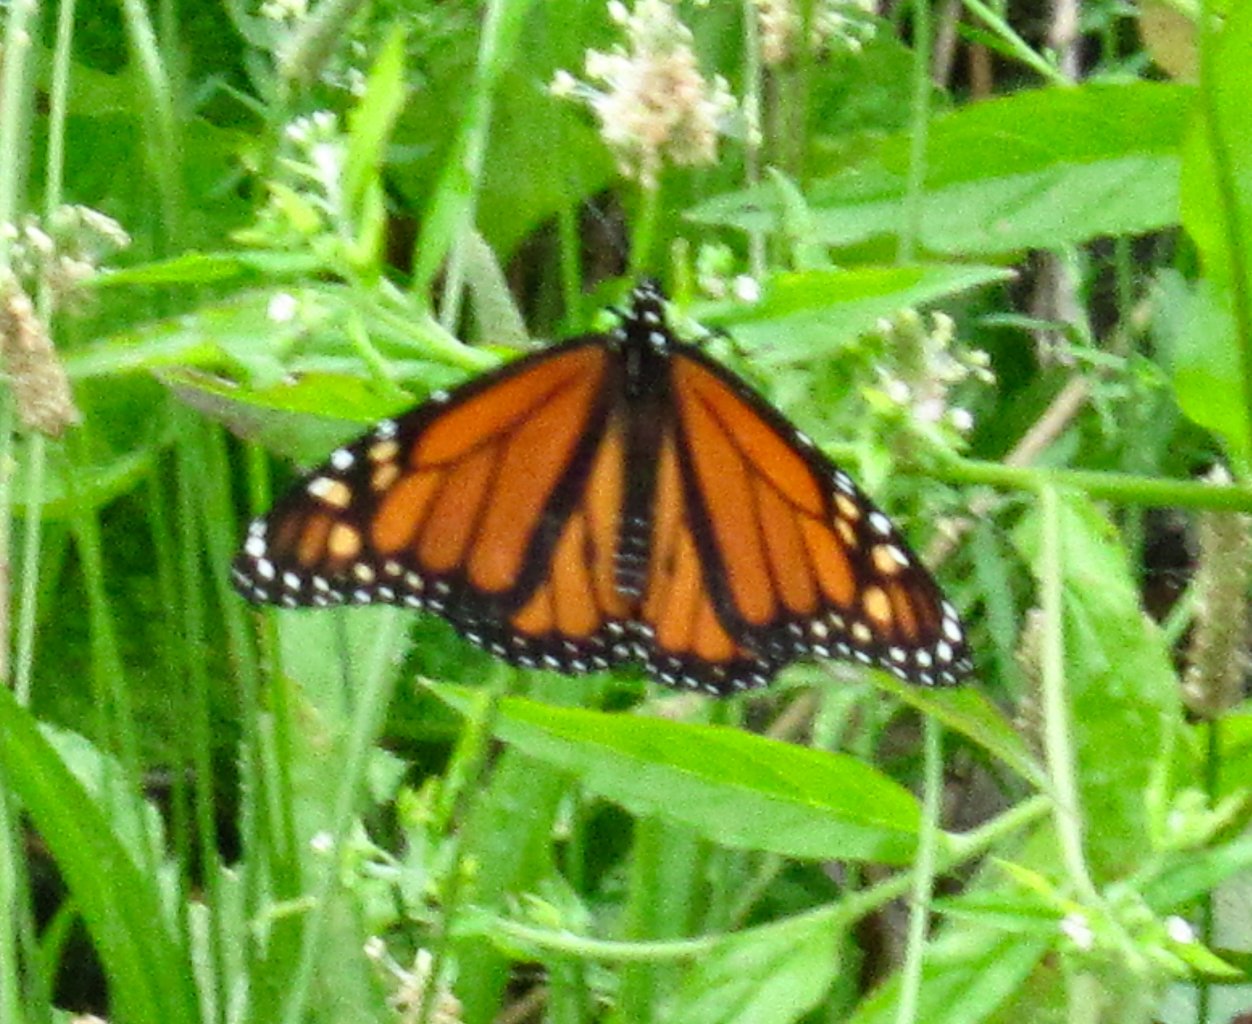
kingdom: Animalia
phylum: Arthropoda
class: Insecta
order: Lepidoptera
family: Nymphalidae
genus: Danaus
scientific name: Danaus plexippus
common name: Monarch
